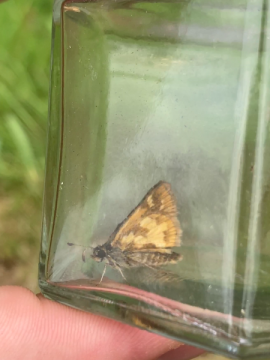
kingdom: Animalia
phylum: Arthropoda
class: Insecta
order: Lepidoptera
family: Hesperiidae
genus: Polites
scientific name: Polites coras
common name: Peck's Skipper
